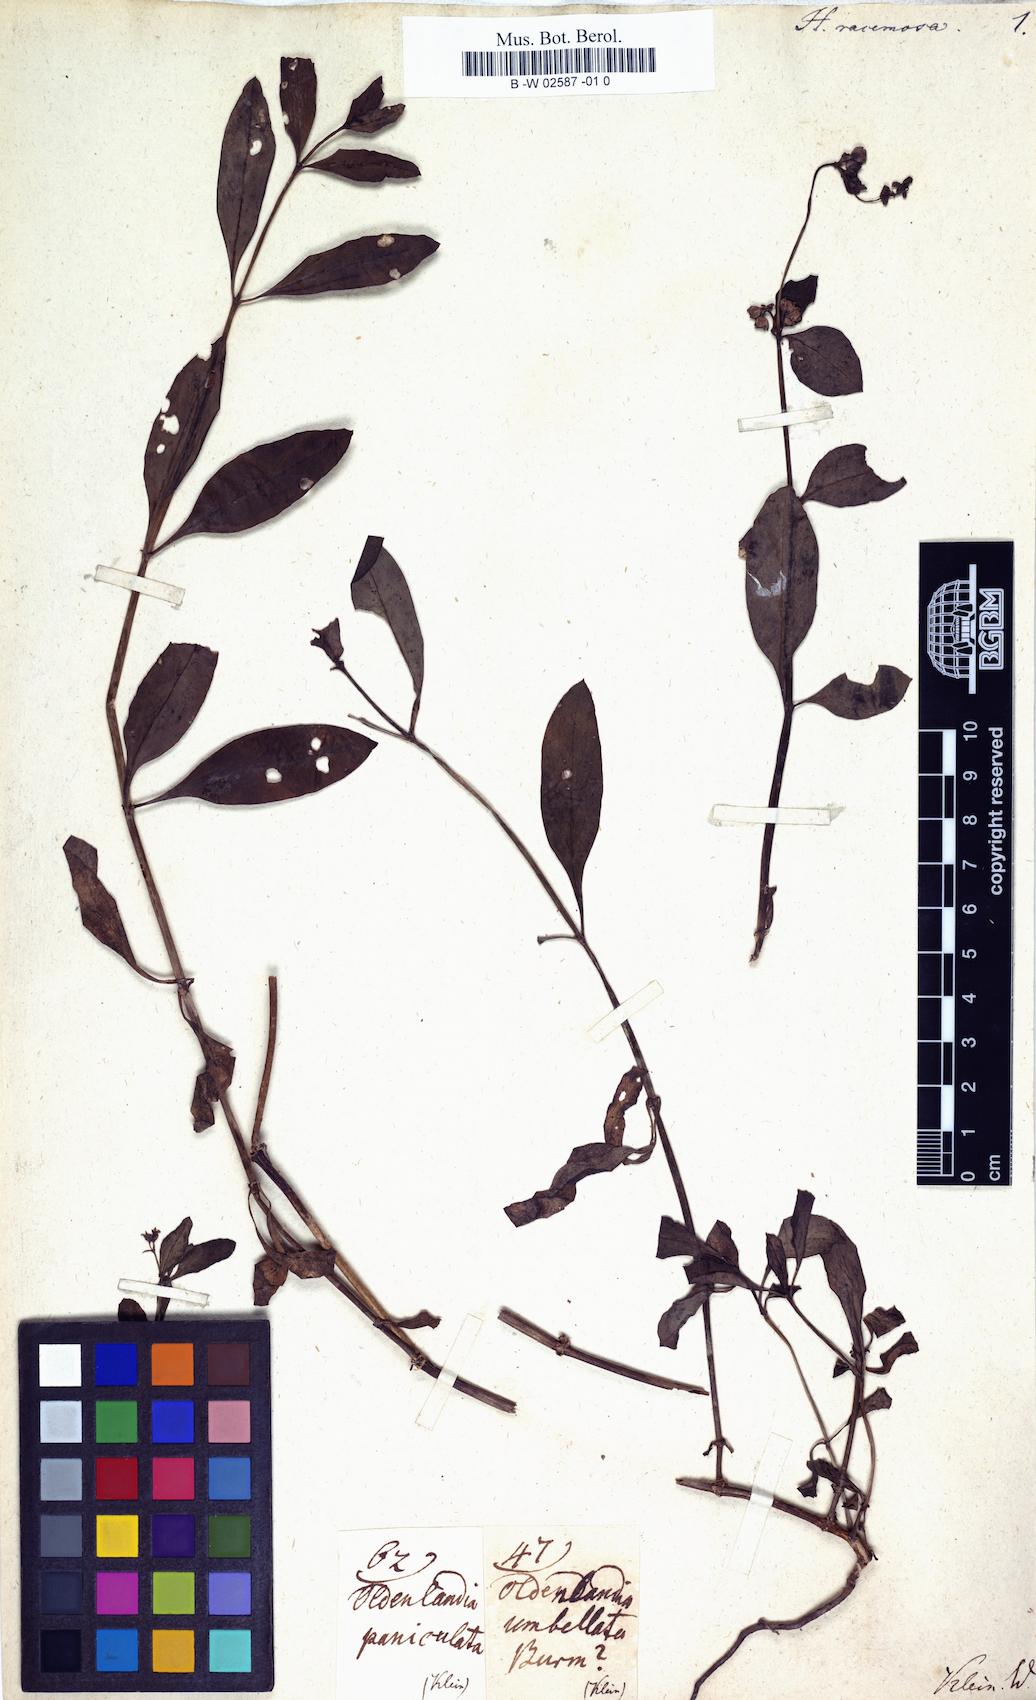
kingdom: Plantae
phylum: Tracheophyta
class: Magnoliopsida
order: Gentianales
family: Rubiaceae
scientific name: Rubiaceae
